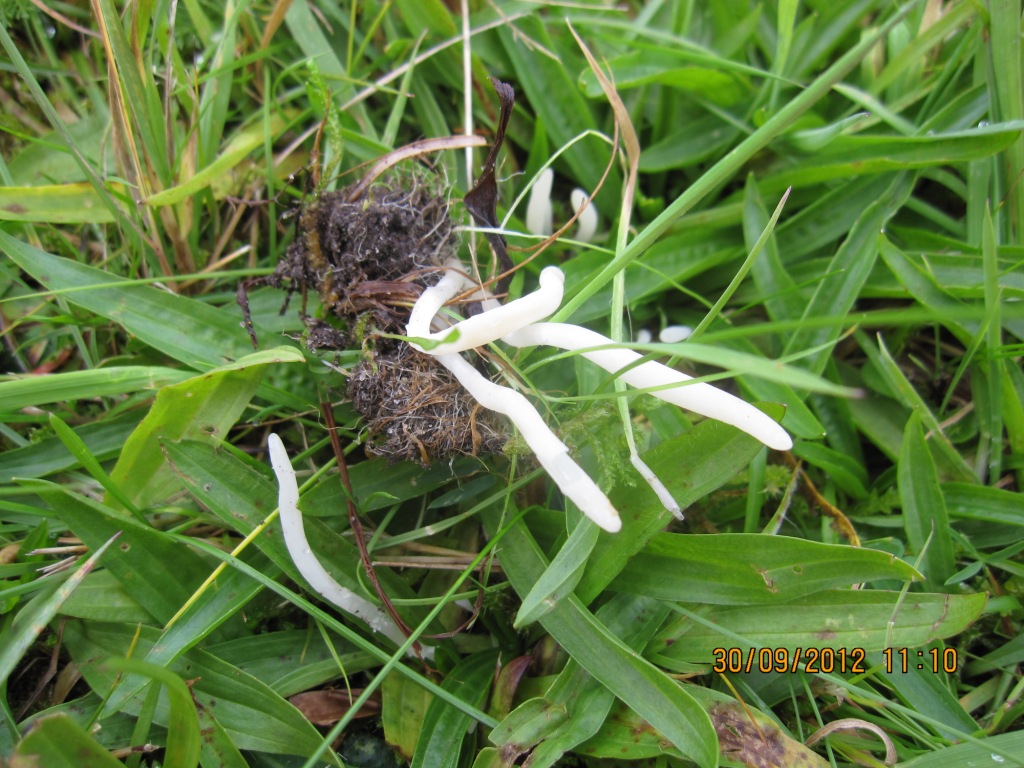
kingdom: Fungi
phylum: Basidiomycota
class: Agaricomycetes
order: Agaricales
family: Clavariaceae
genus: Clavaria
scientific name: Clavaria falcata
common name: hvid køllesvamp
